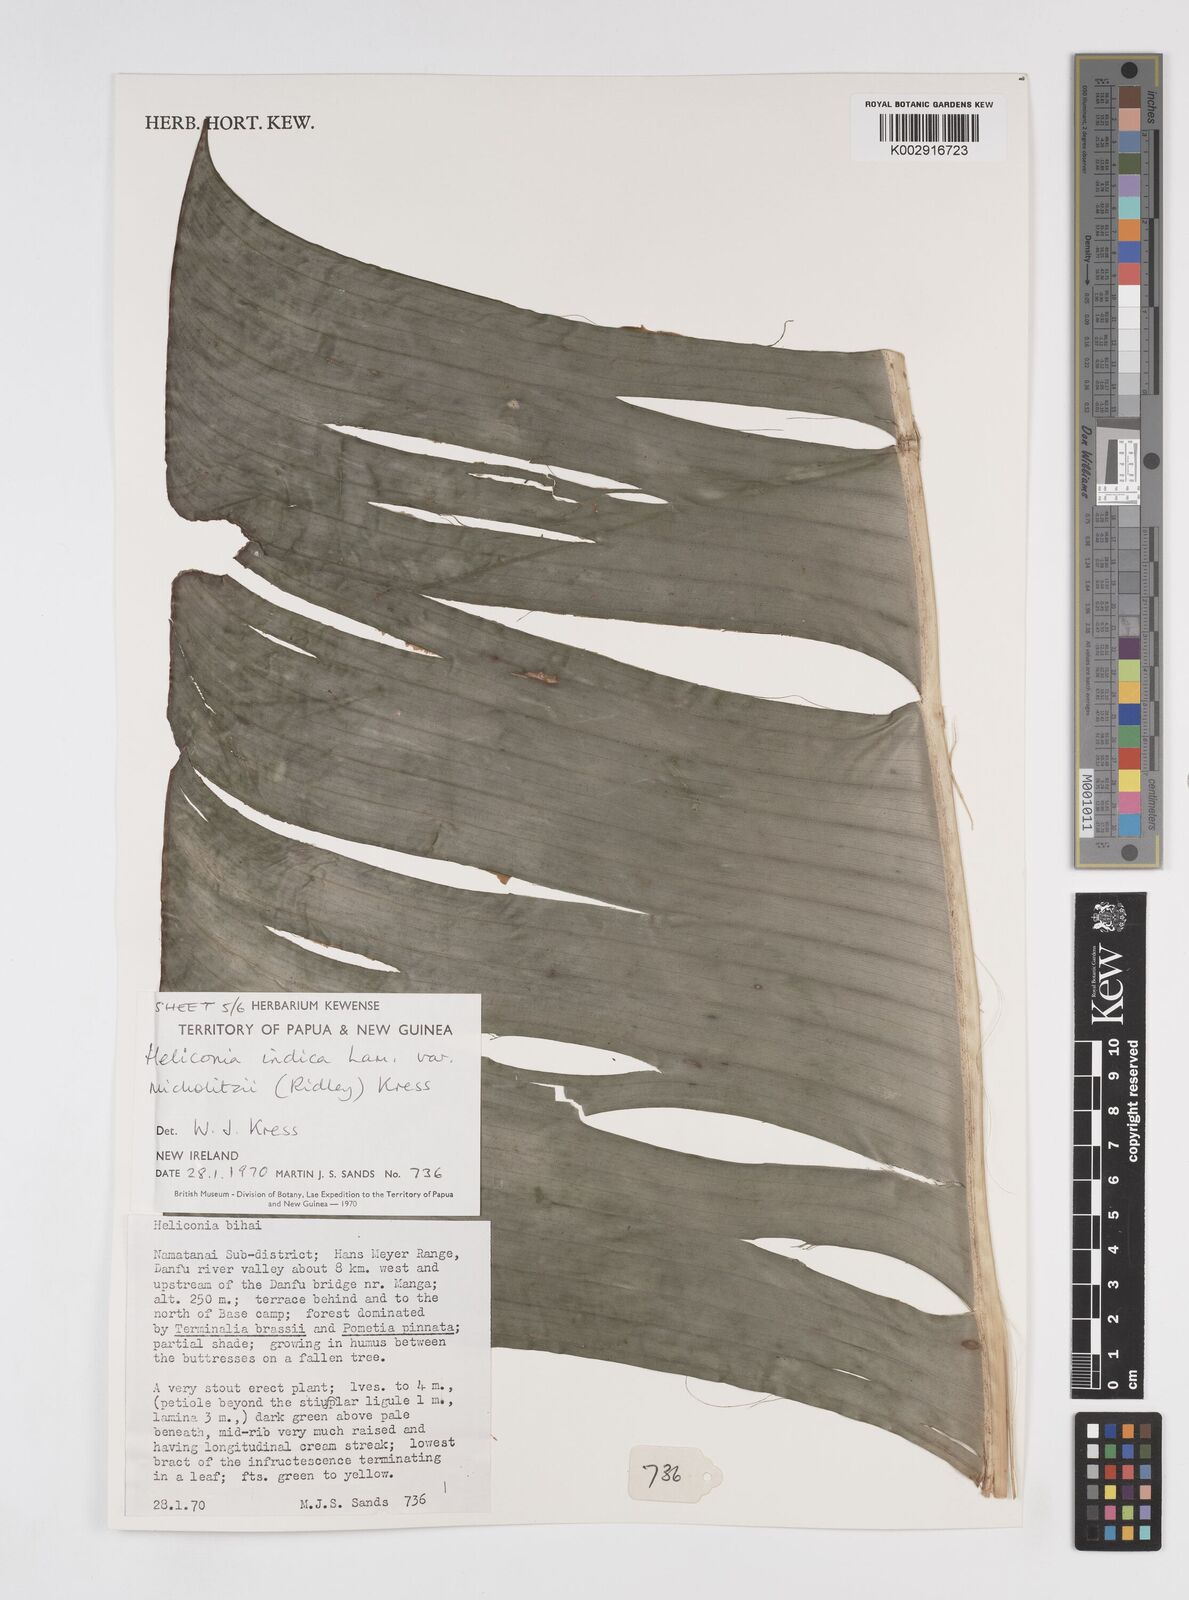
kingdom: Plantae
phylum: Tracheophyta
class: Liliopsida
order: Zingiberales
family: Heliconiaceae
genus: Heliconia
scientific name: Heliconia indica
